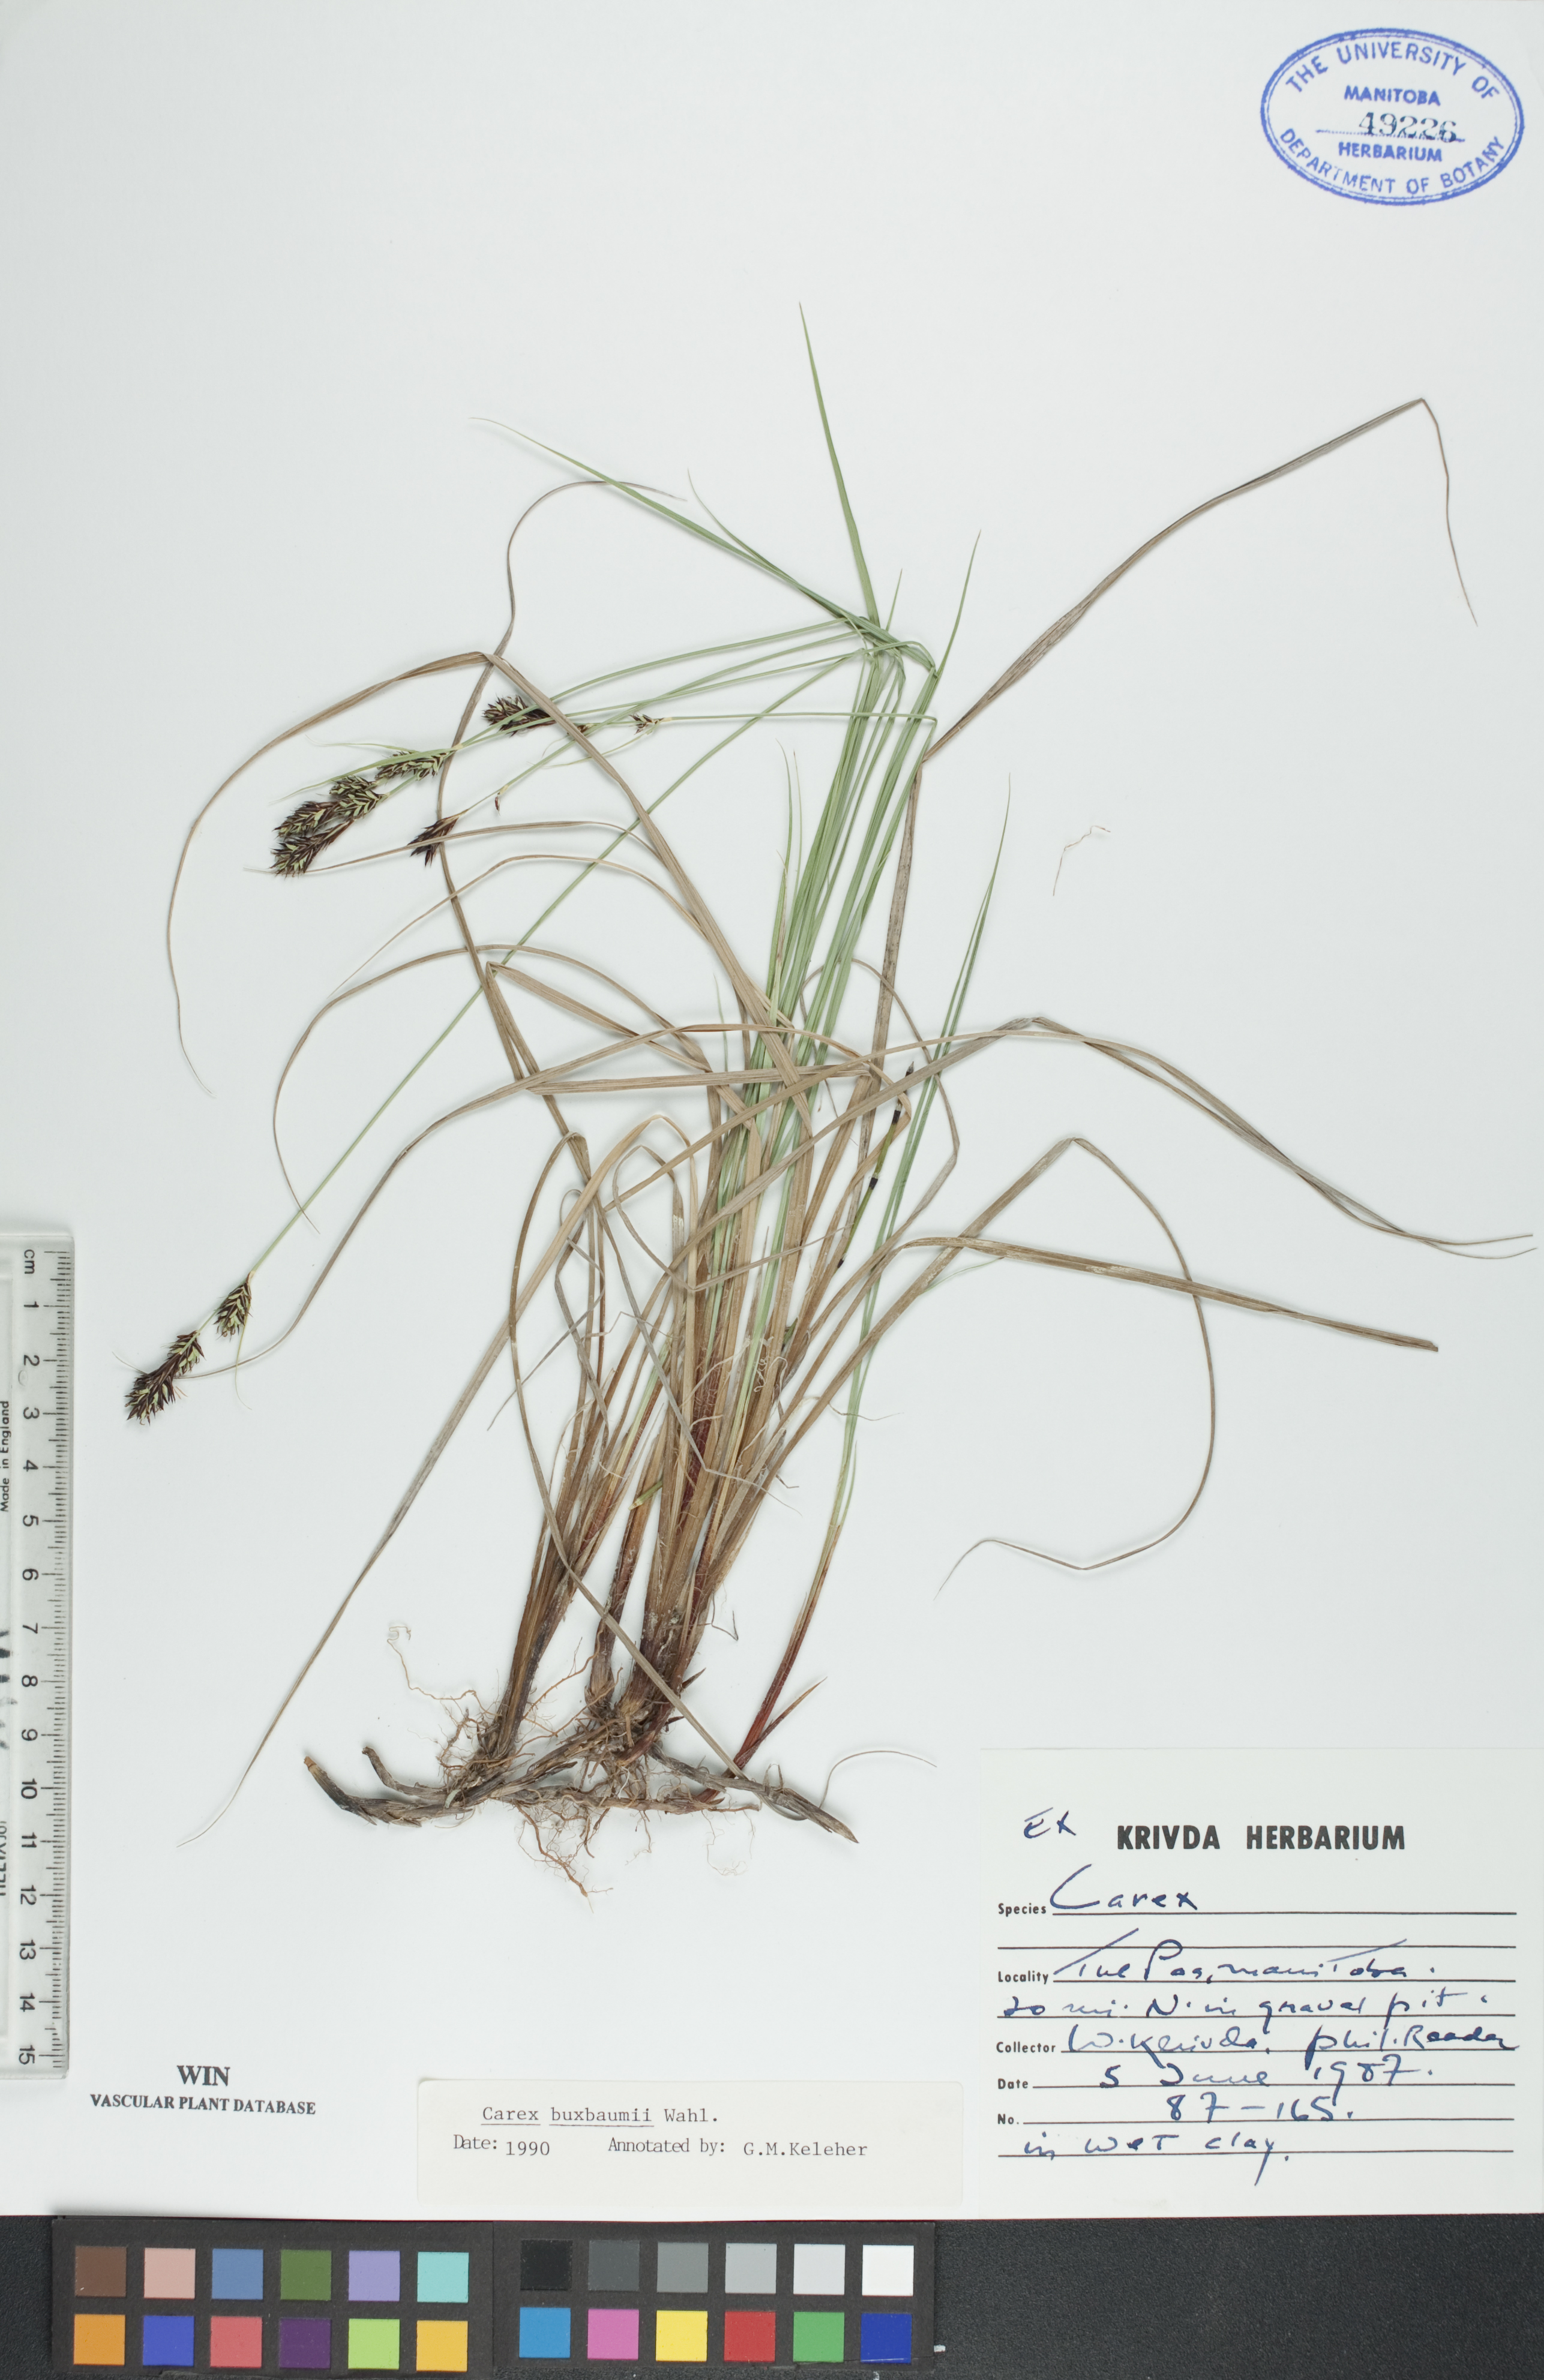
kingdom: Plantae
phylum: Tracheophyta
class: Liliopsida
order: Poales
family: Cyperaceae
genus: Carex
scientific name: Carex buxbaumii
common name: Club sedge
